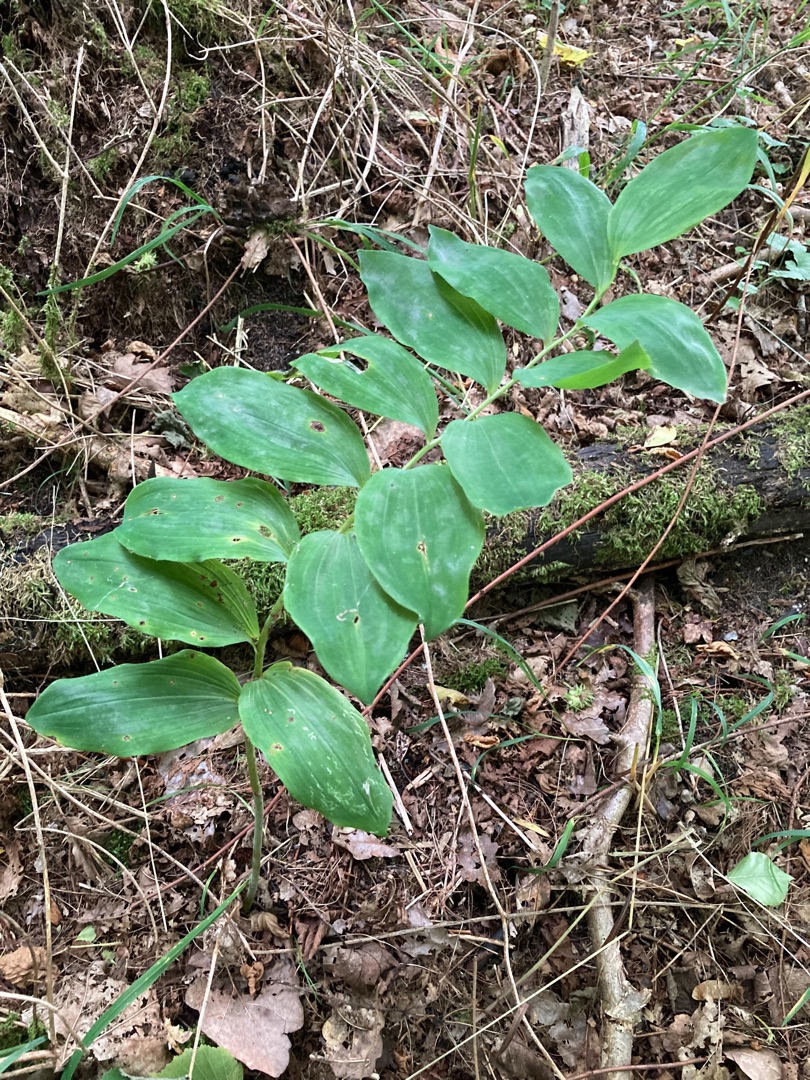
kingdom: Plantae
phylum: Tracheophyta
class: Liliopsida
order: Asparagales
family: Asparagaceae
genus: Polygonatum
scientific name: Polygonatum multiflorum
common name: Stor konval
